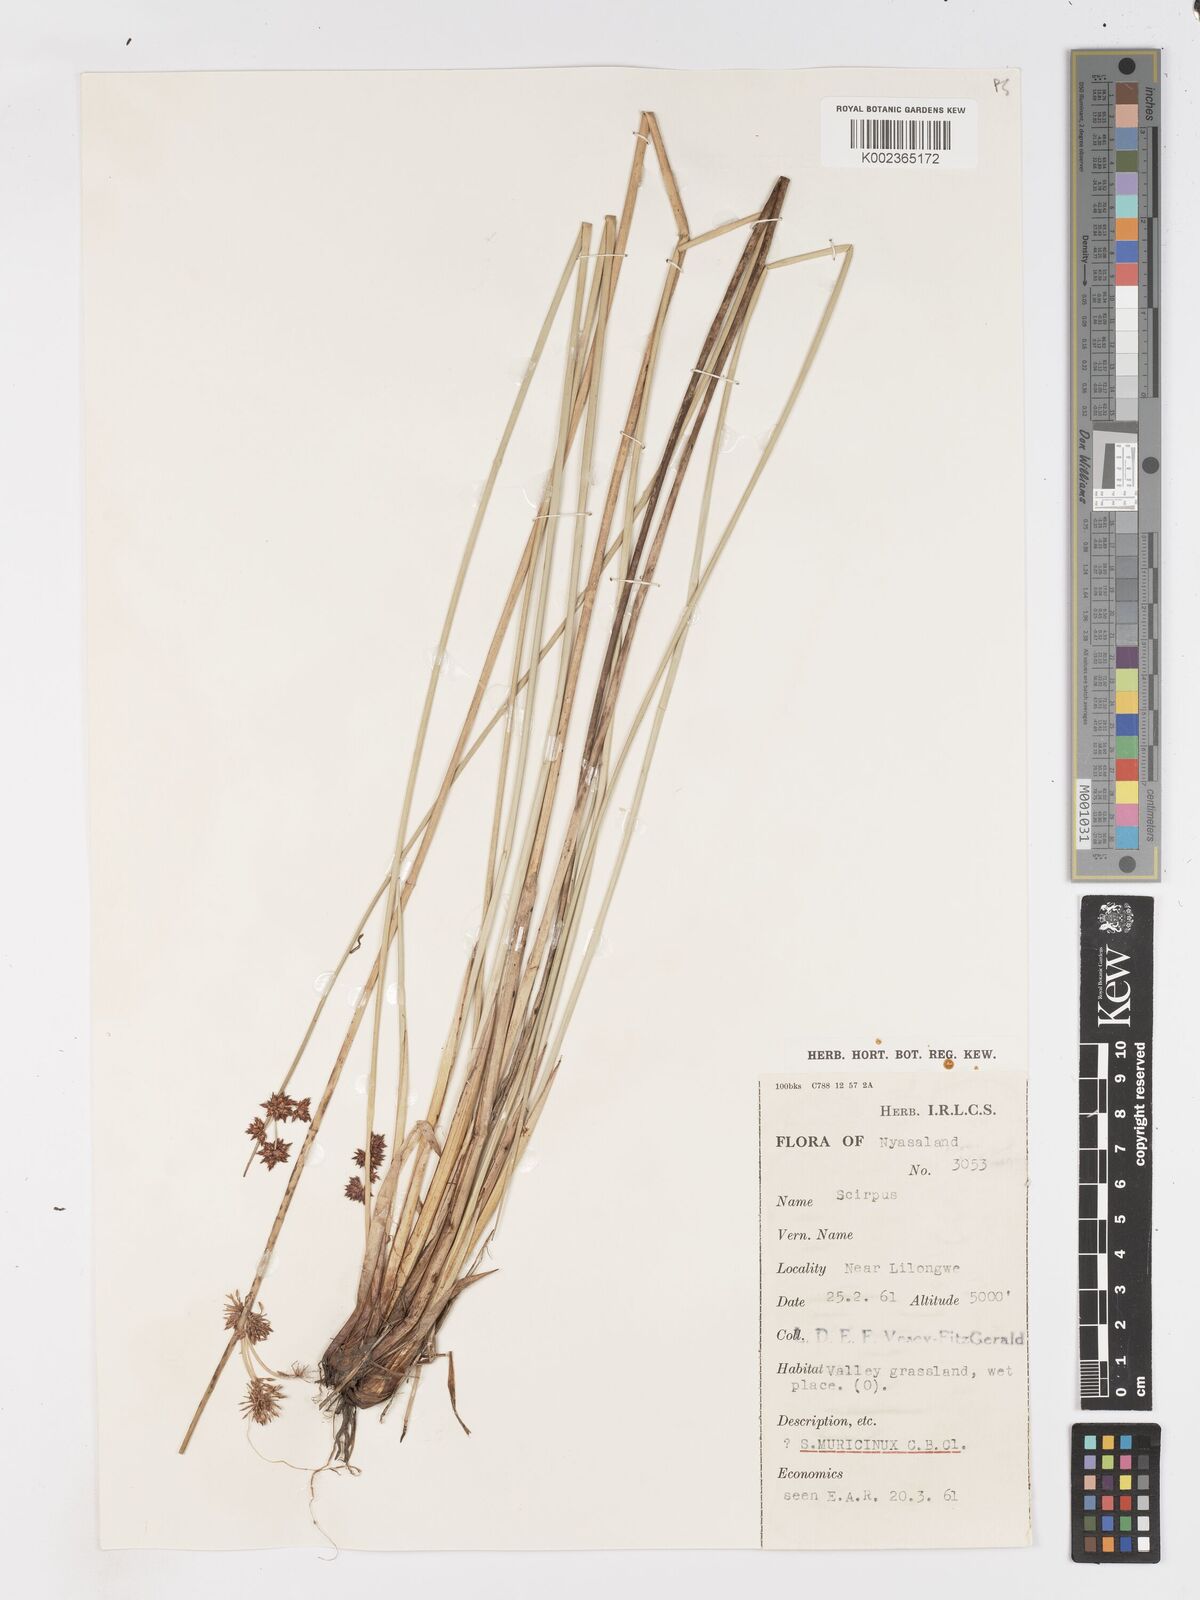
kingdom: Plantae
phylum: Tracheophyta
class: Liliopsida
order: Poales
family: Cyperaceae
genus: Schoenoplectiella
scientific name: Schoenoplectiella muricinux
